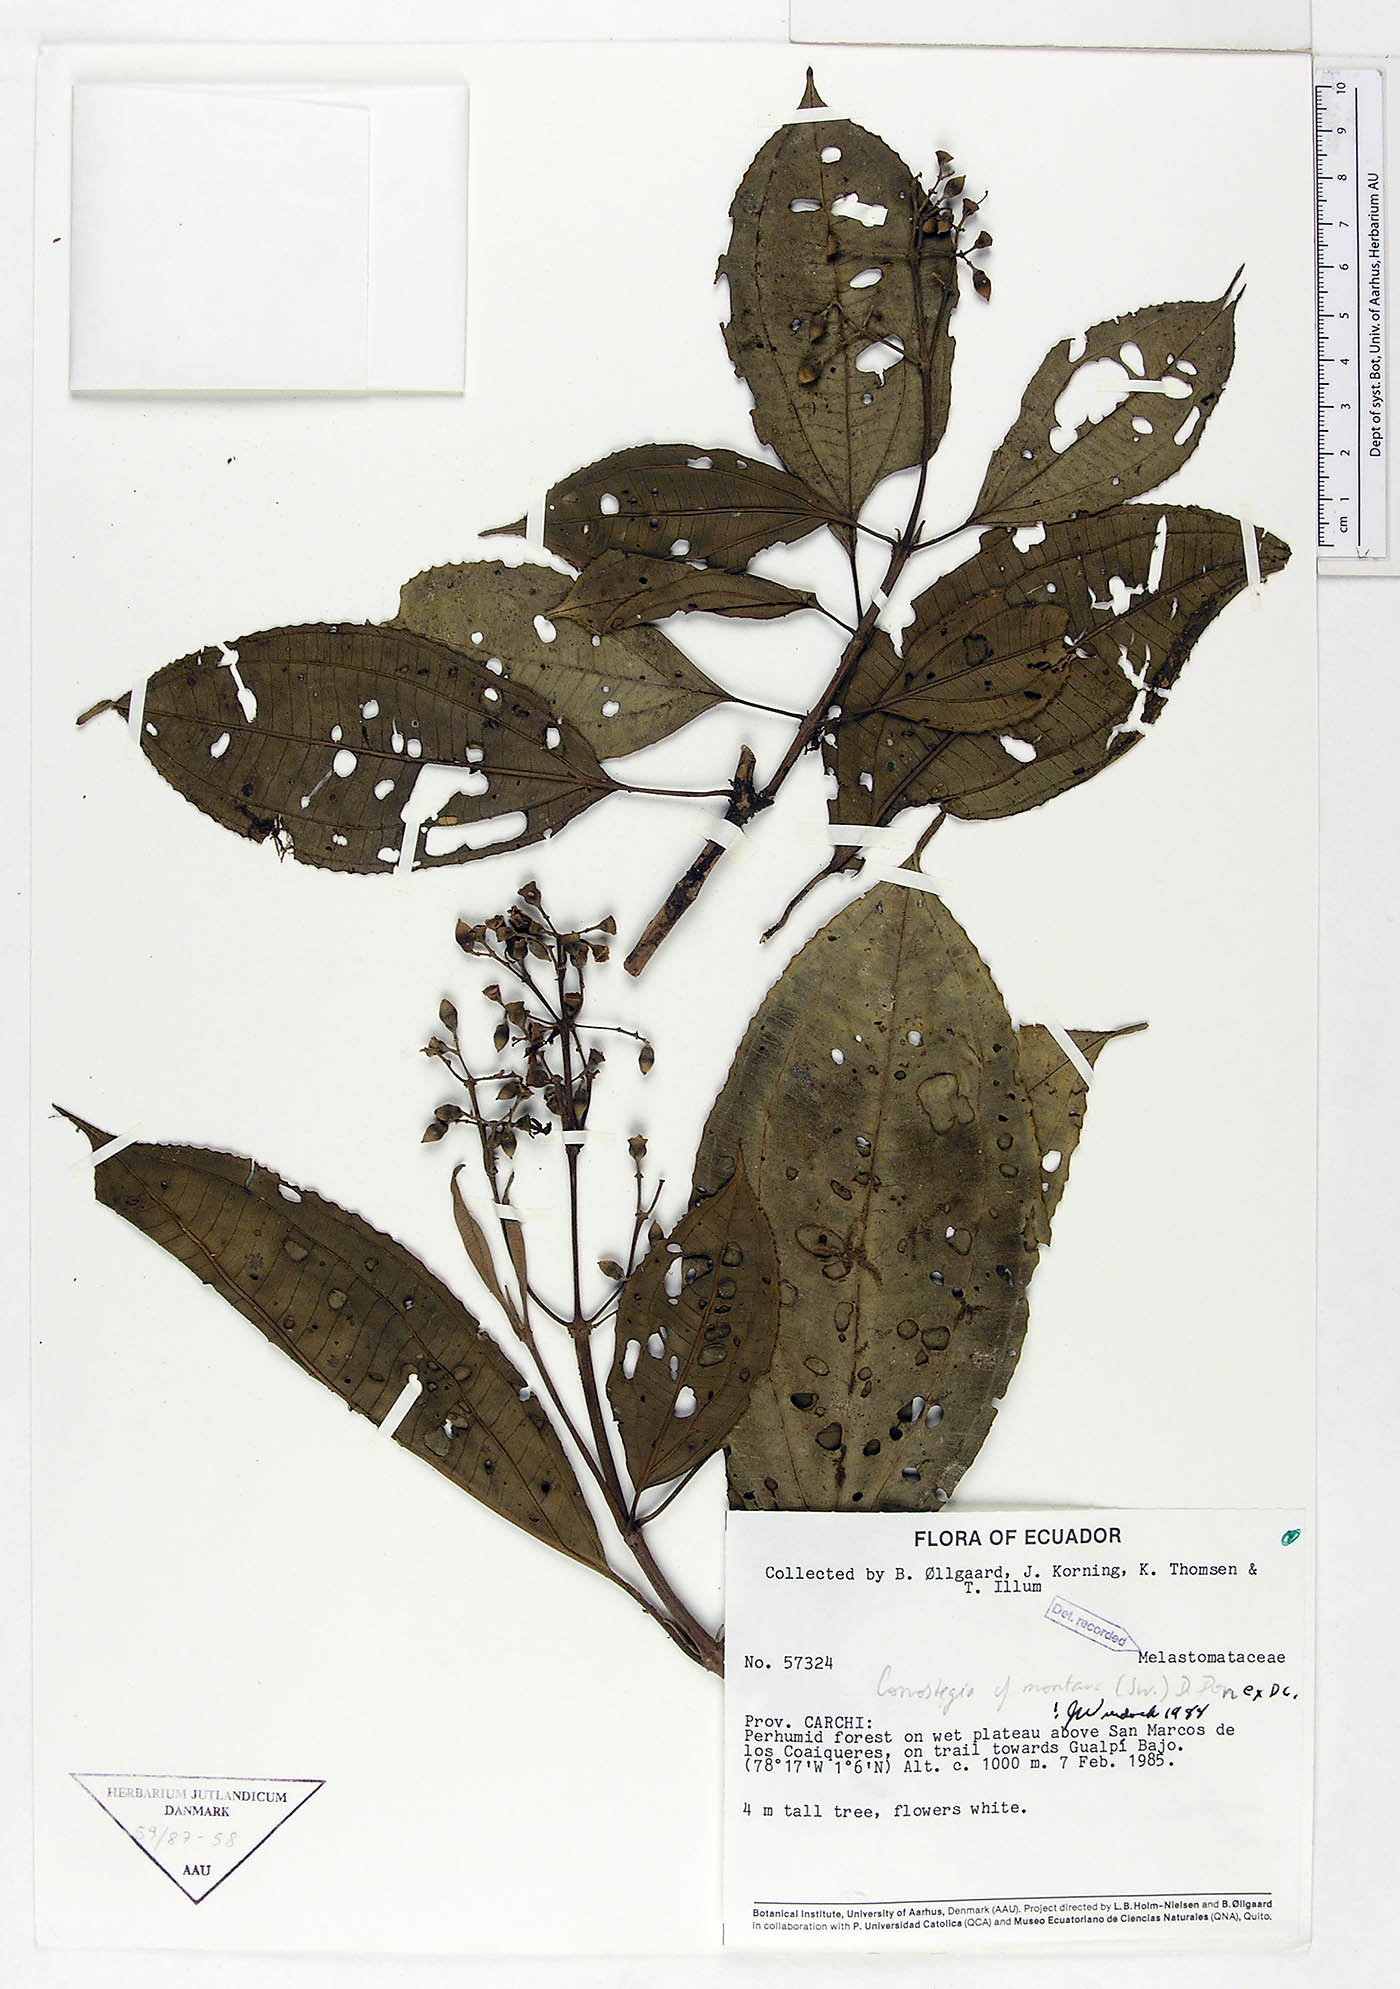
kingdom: Plantae
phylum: Tracheophyta
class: Magnoliopsida
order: Myrtales
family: Melastomataceae
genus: Miconia
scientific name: Miconia cooperi
